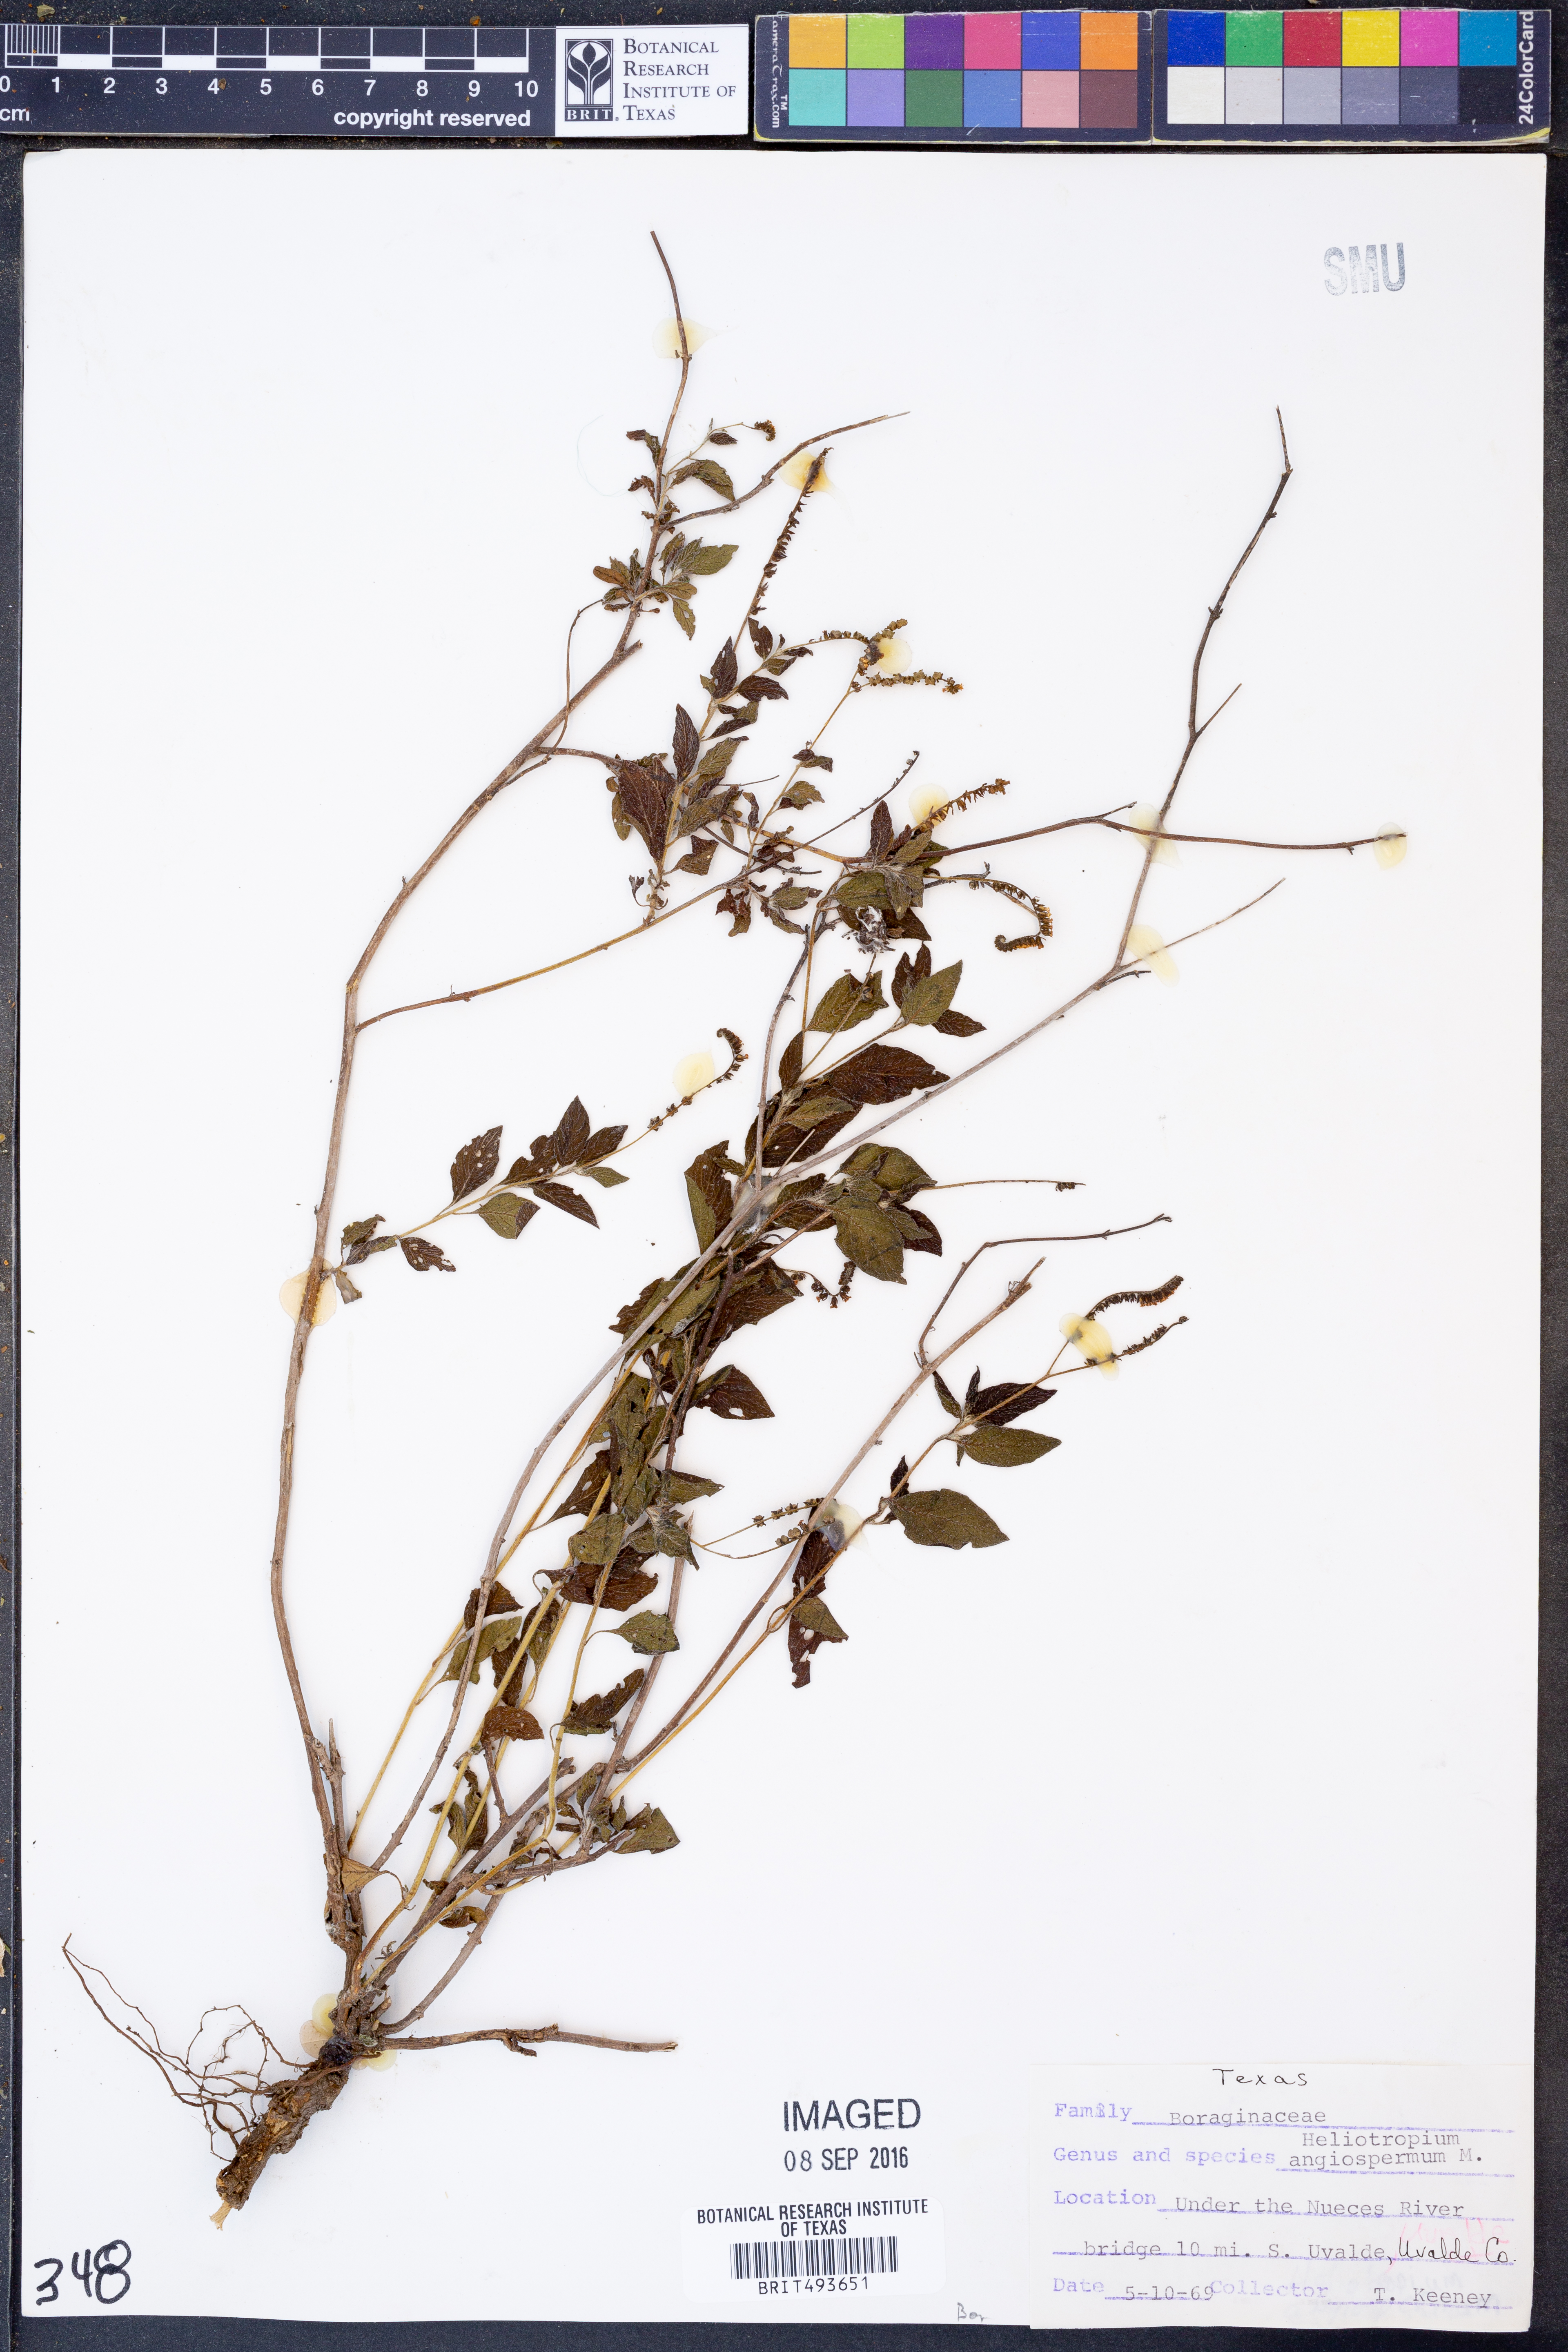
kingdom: Plantae
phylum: Tracheophyta
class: Magnoliopsida
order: Boraginales
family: Heliotropiaceae
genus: Heliotropium
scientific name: Heliotropium angiospermum
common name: Eye bright
